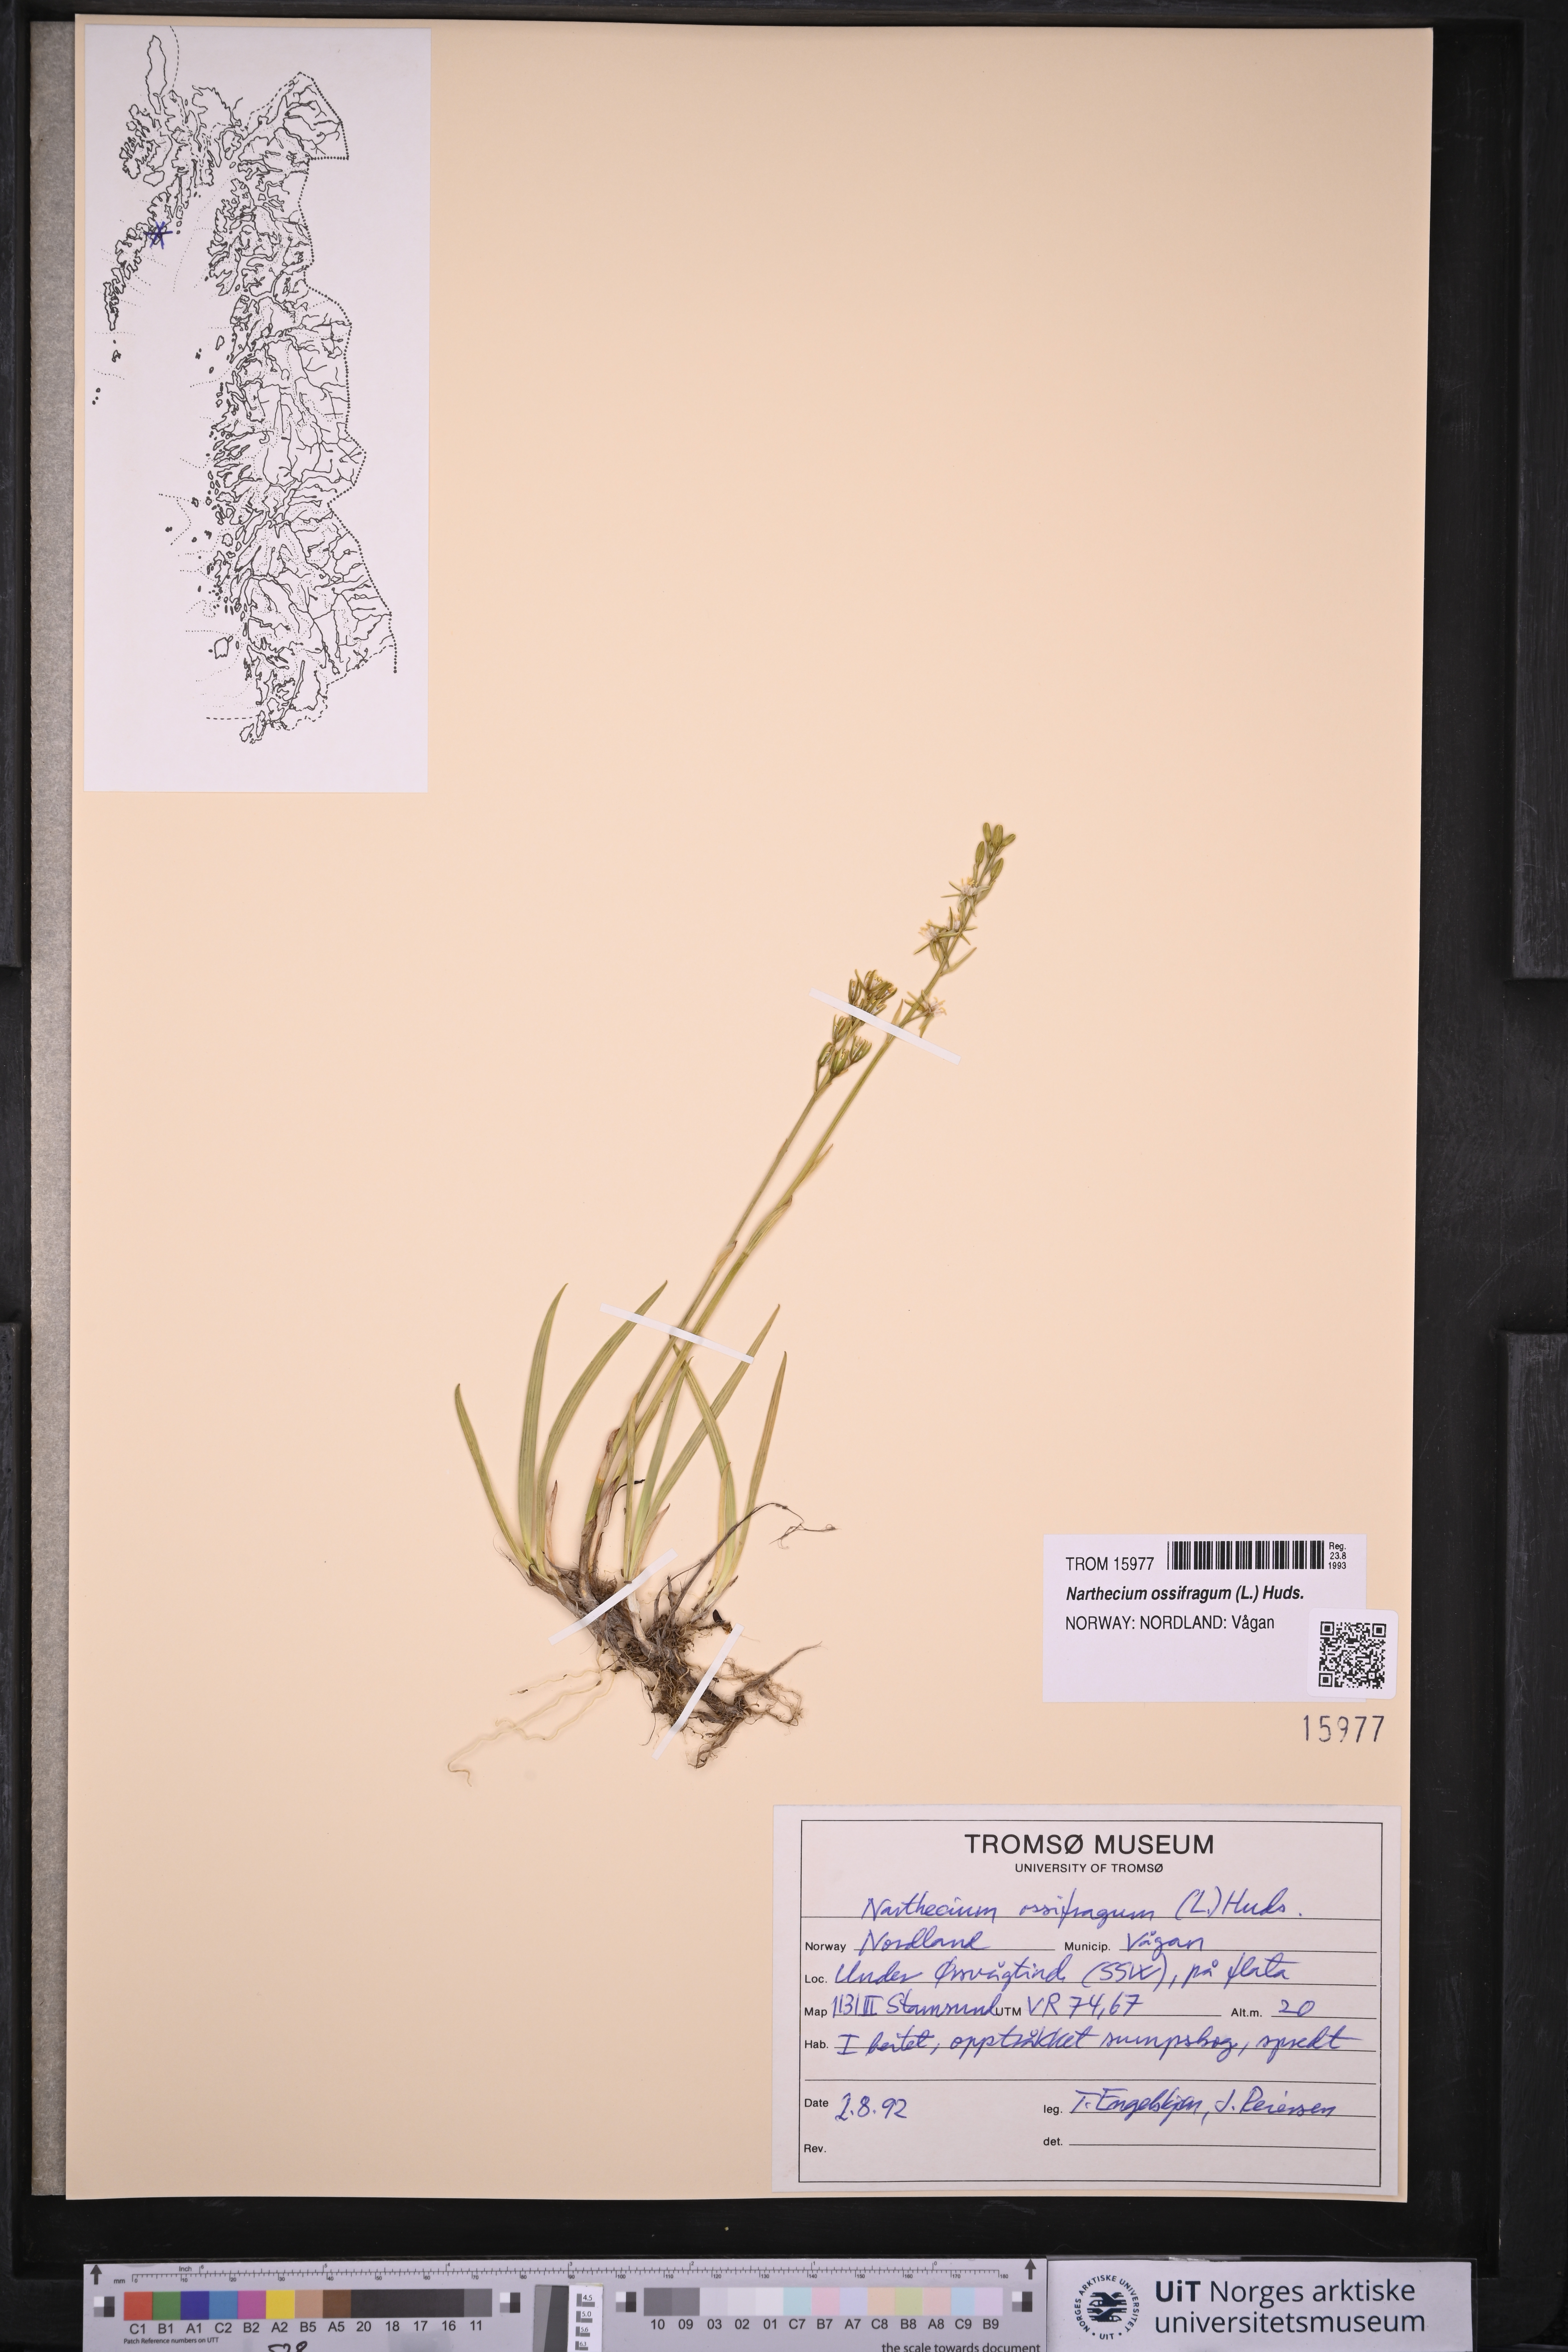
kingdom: Plantae
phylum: Tracheophyta
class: Liliopsida
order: Dioscoreales
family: Nartheciaceae
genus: Narthecium
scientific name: Narthecium ossifragum
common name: Bog asphodel
